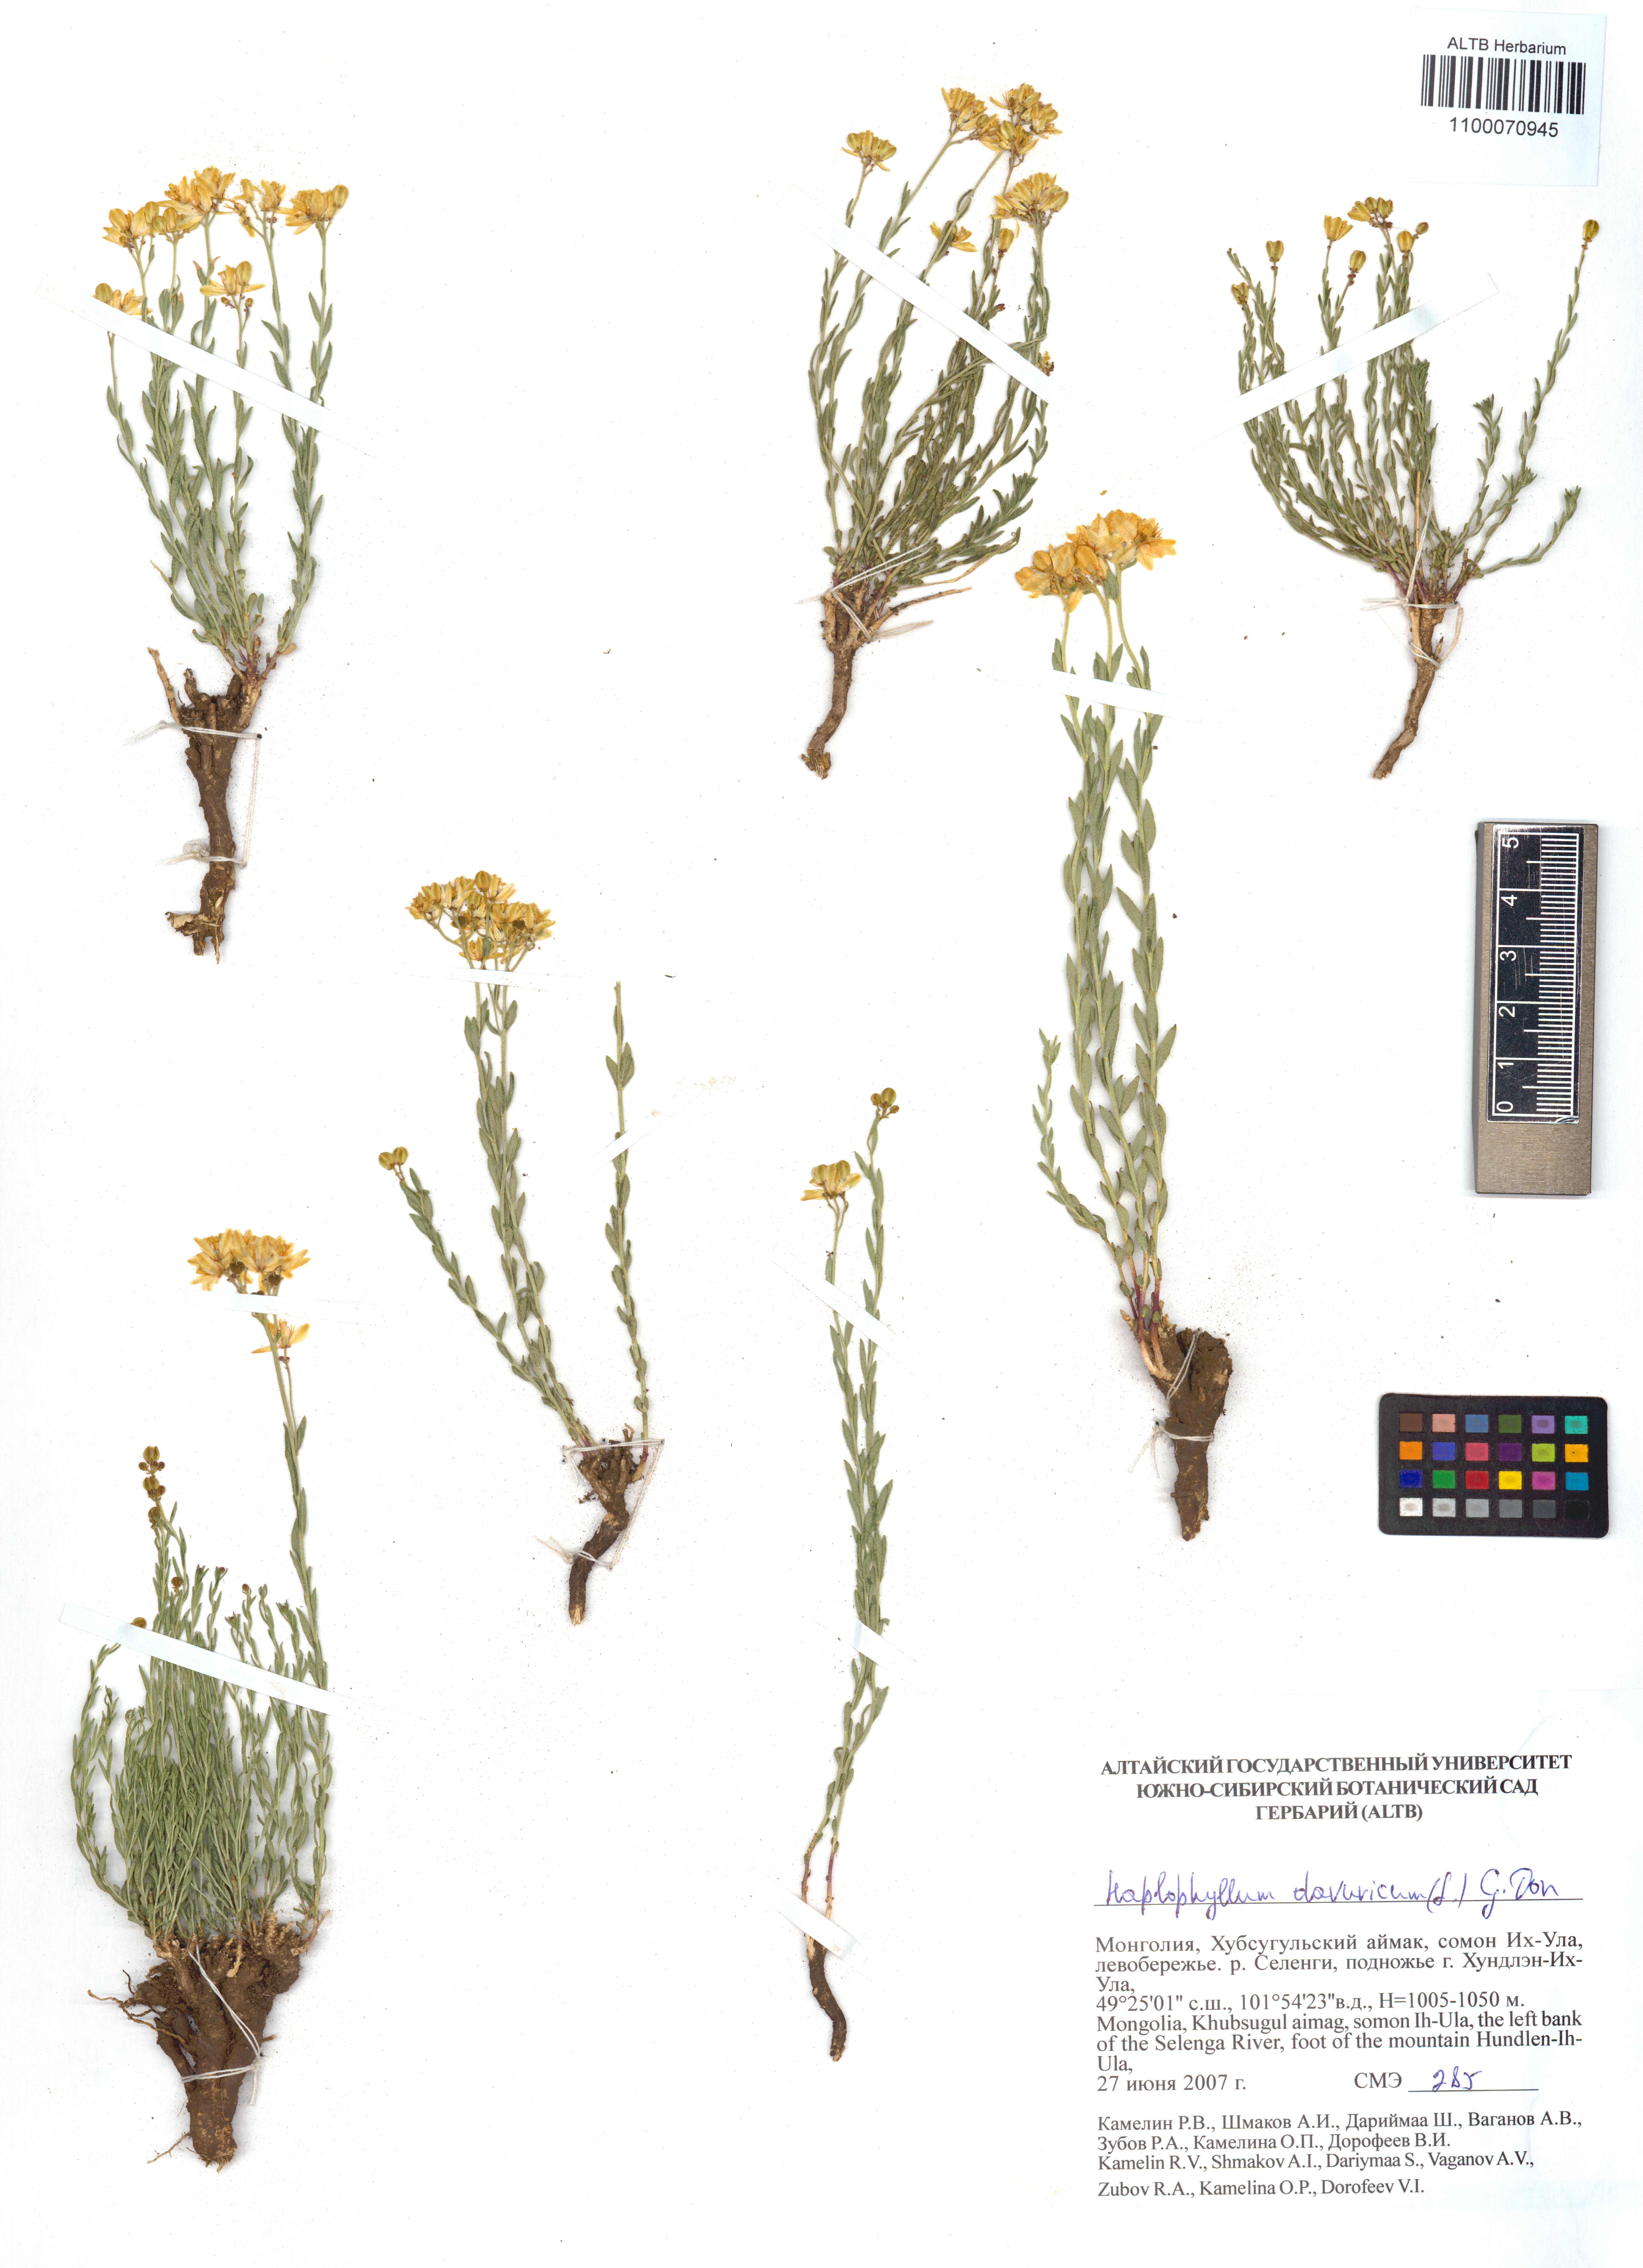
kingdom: Plantae
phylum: Tracheophyta
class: Magnoliopsida
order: Sapindales
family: Rutaceae
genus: Haplophyllum
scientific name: Haplophyllum dauricum
